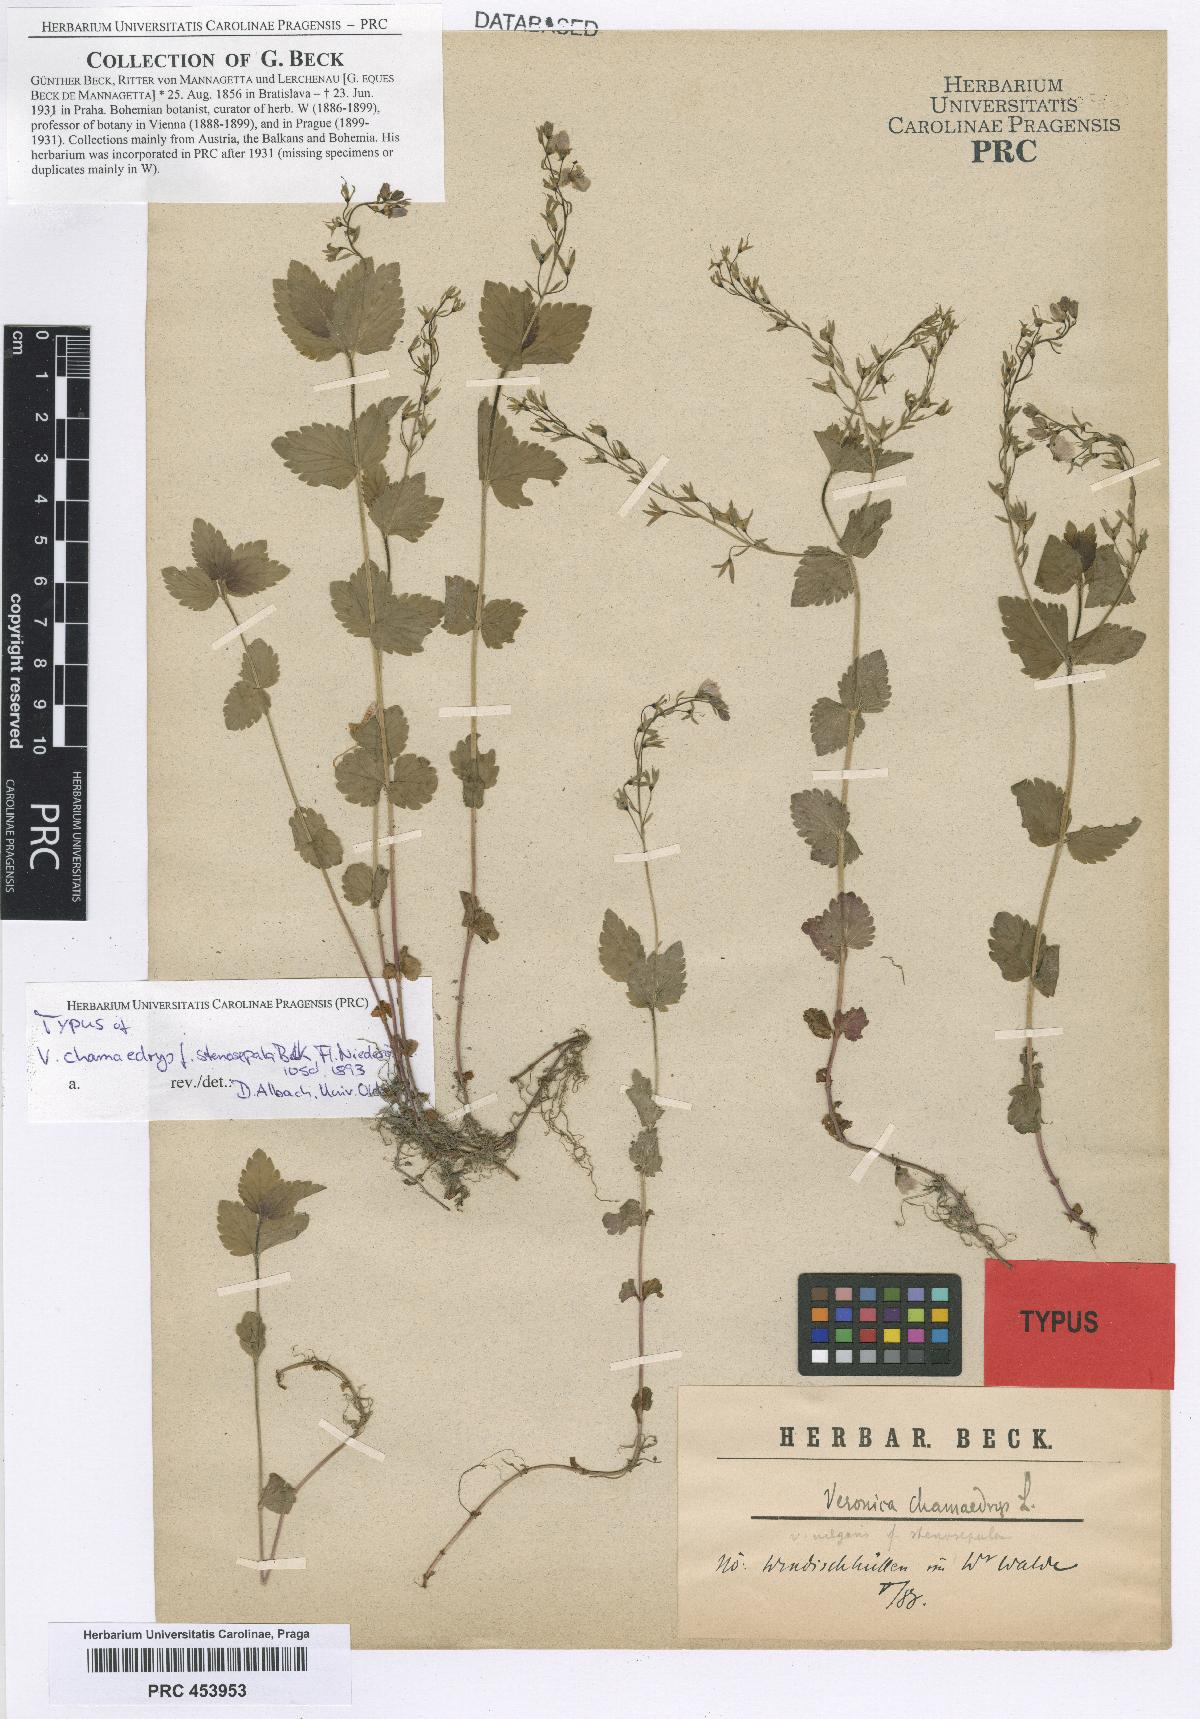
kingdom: Plantae
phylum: Tracheophyta
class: Magnoliopsida
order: Lamiales
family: Plantaginaceae
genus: Veronica
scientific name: Veronica chamaedrys
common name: Germander speedwell
